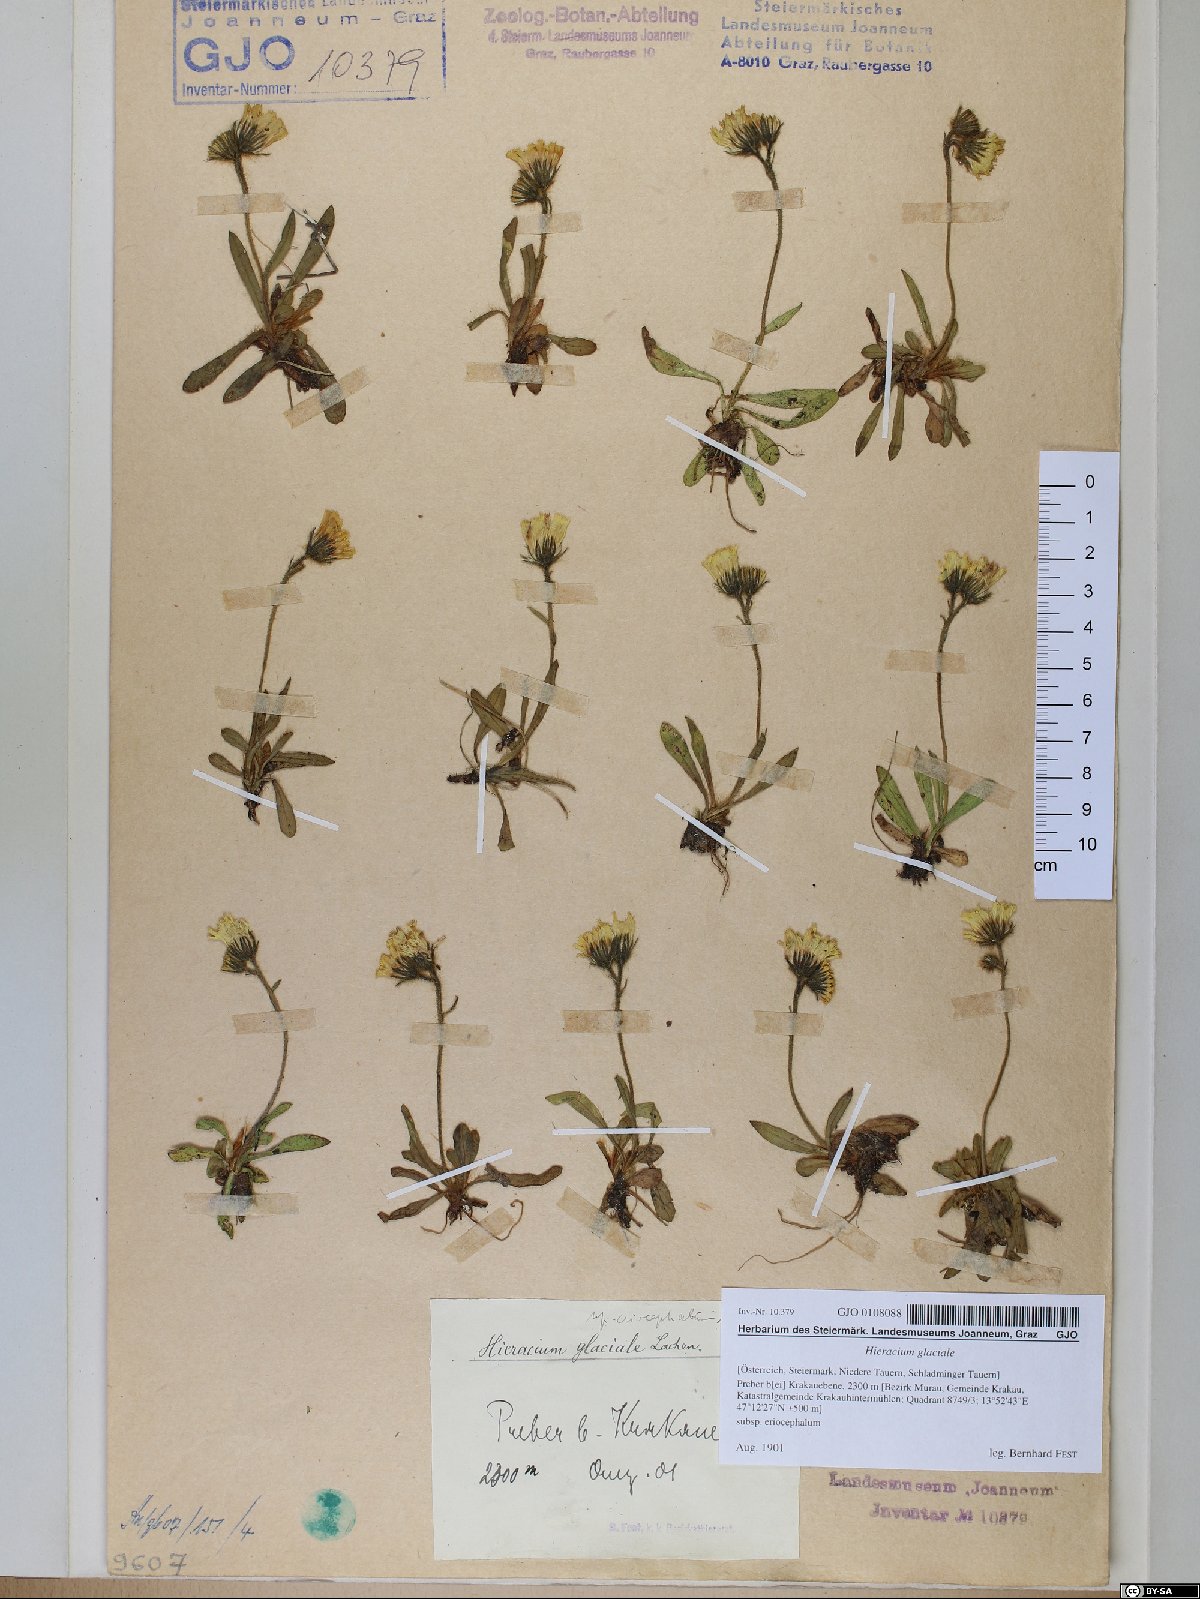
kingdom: Plantae
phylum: Tracheophyta
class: Magnoliopsida
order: Asterales
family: Asteraceae
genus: Pilosella
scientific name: Pilosella glacialis
